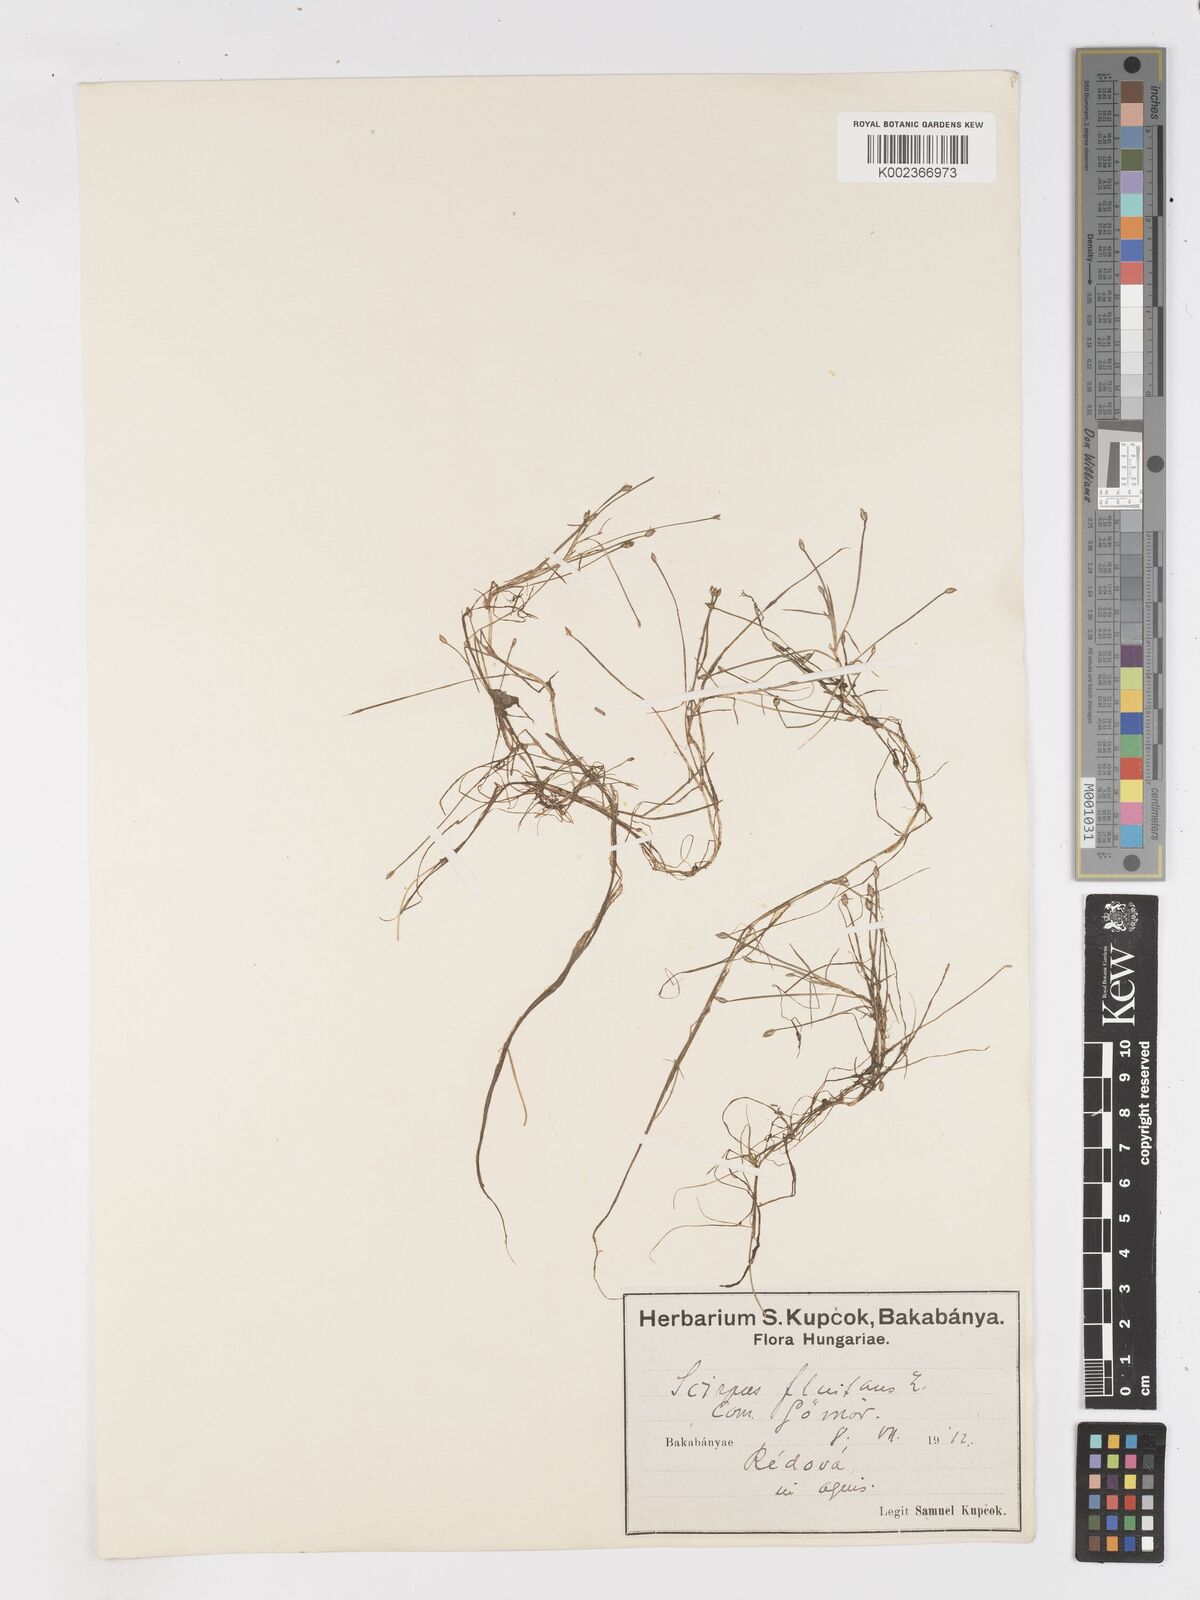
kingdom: Plantae
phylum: Tracheophyta
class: Liliopsida
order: Poales
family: Cyperaceae
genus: Isolepis
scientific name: Isolepis fluitans
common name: Floating club-rush
